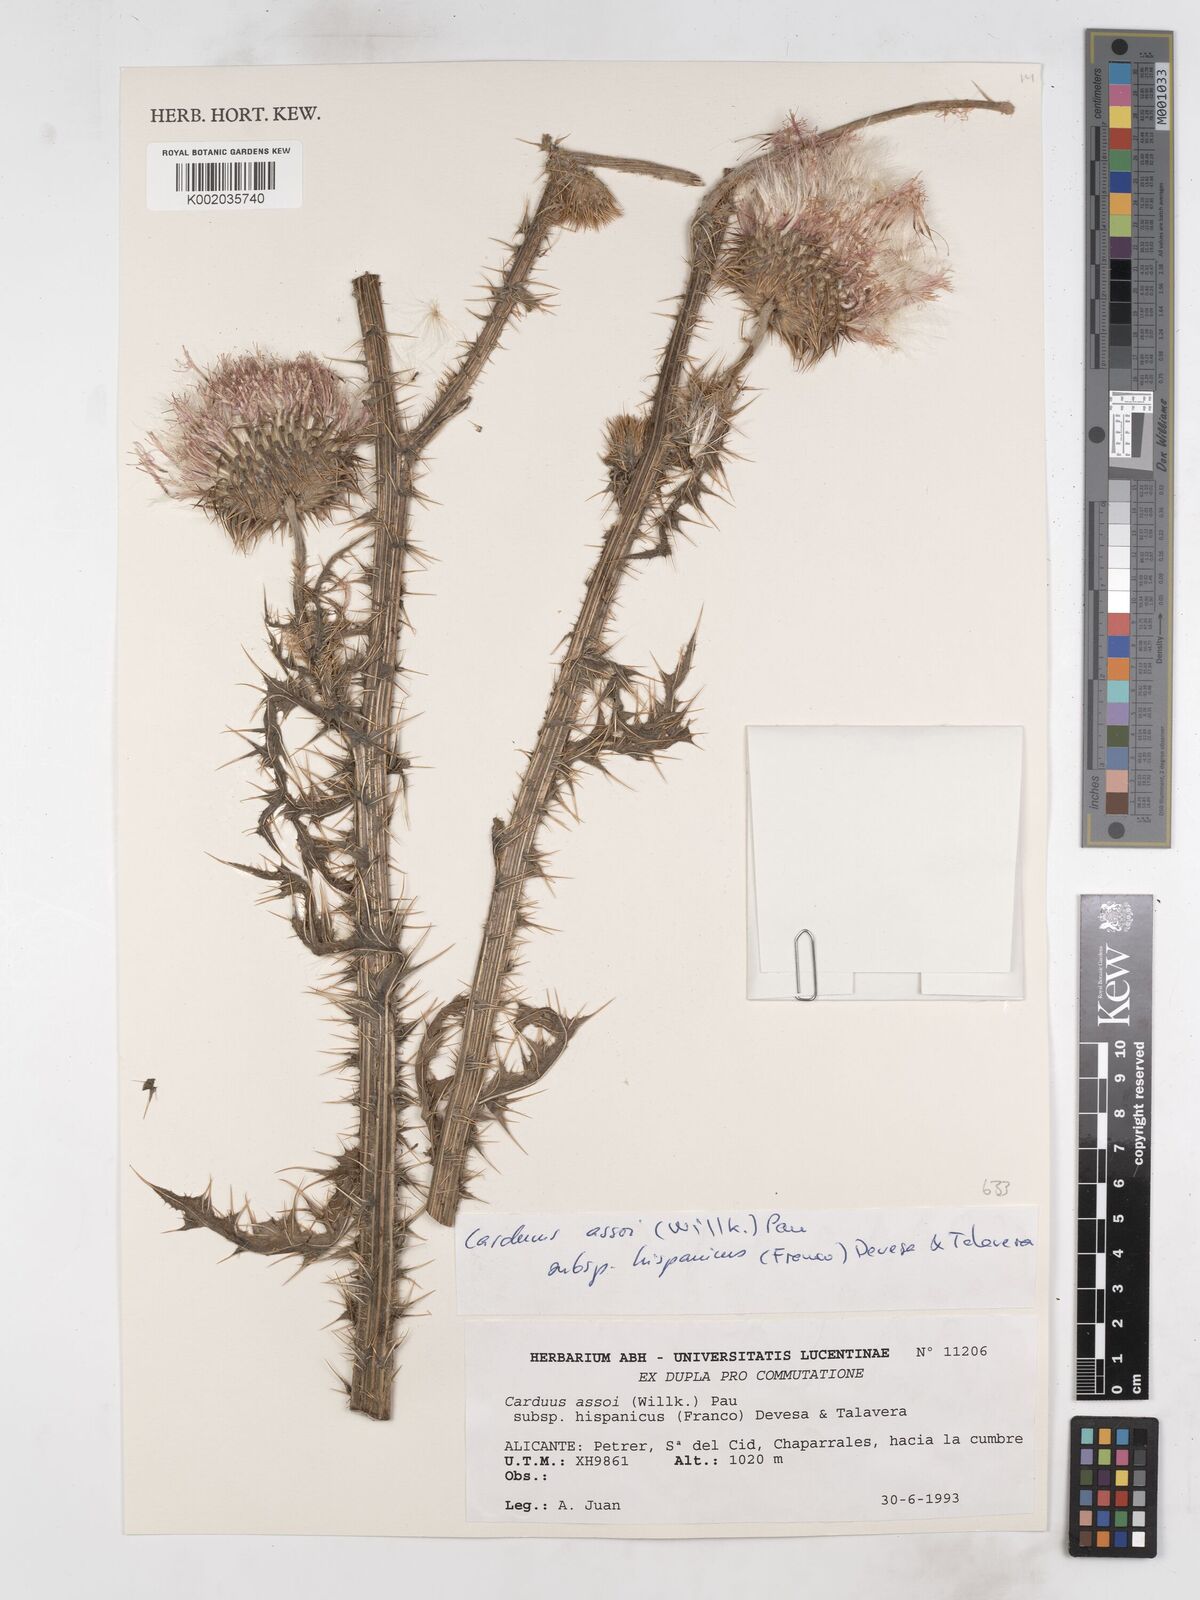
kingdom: Plantae
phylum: Tracheophyta
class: Magnoliopsida
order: Asterales
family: Asteraceae
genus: Carduus
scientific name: Carduus nigrescens
